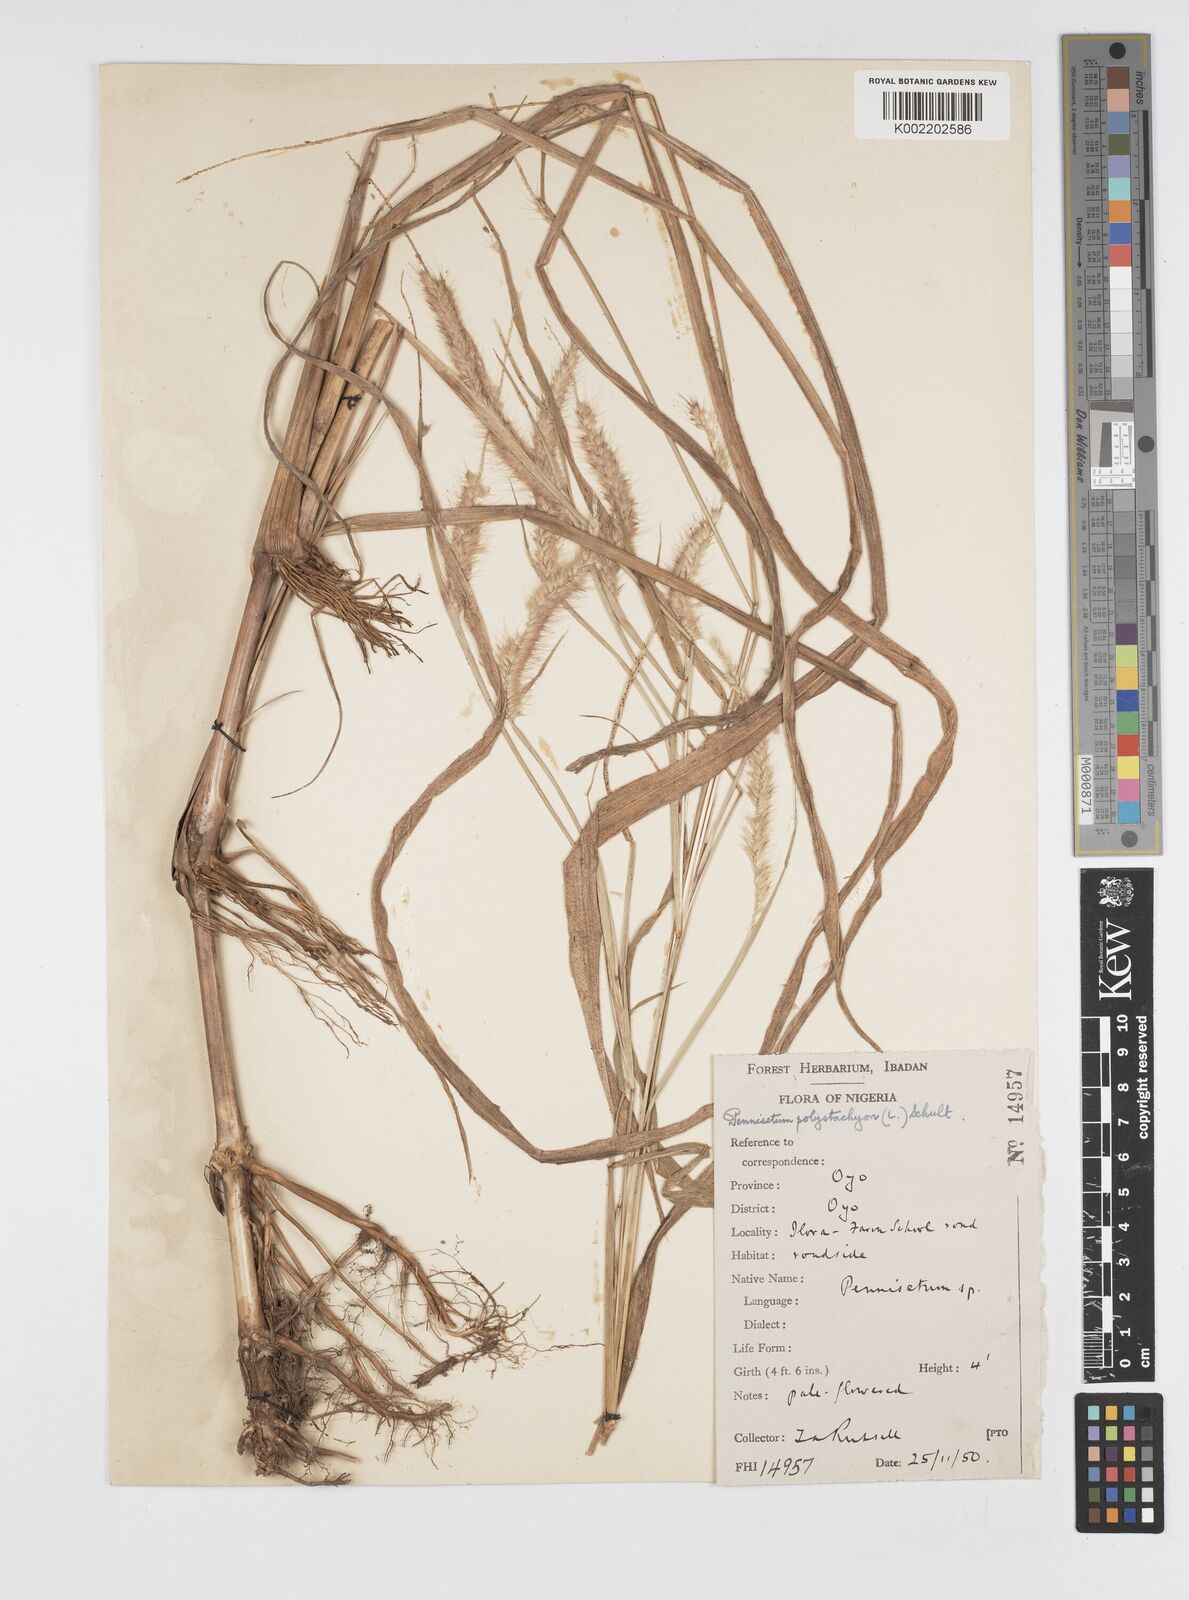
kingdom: Plantae
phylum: Tracheophyta
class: Liliopsida
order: Poales
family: Poaceae
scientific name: Poaceae
